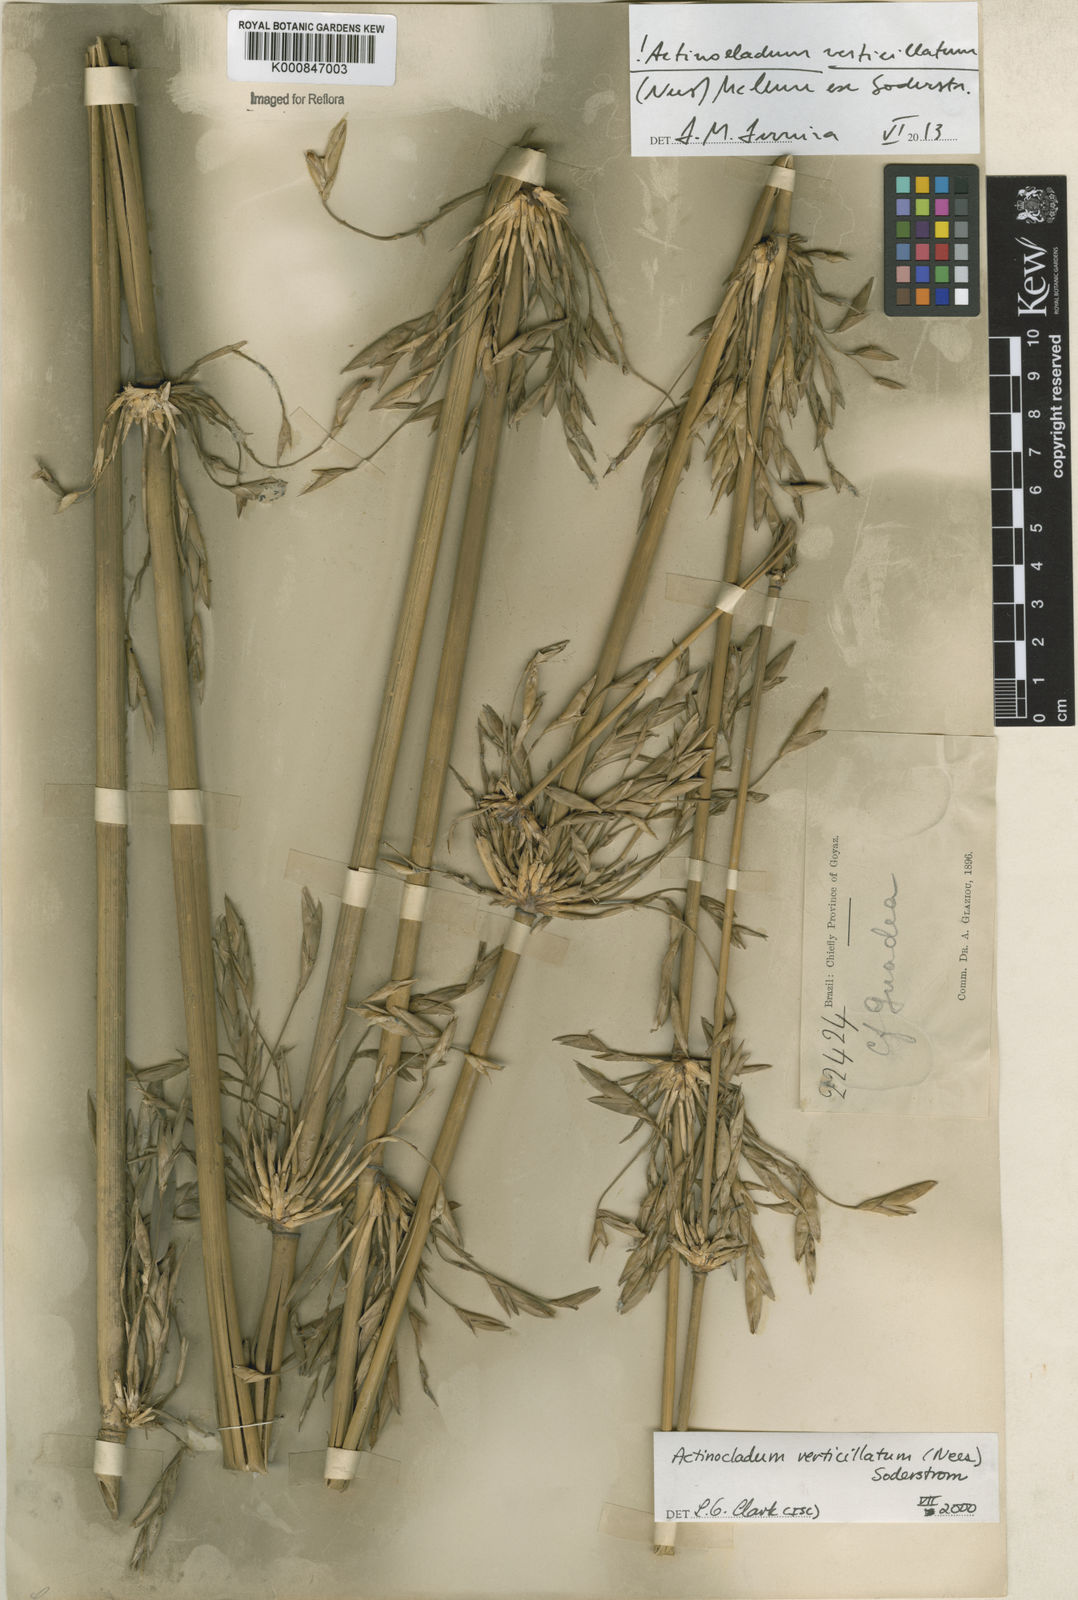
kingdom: Plantae
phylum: Tracheophyta
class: Liliopsida
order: Poales
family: Poaceae
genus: Actinocladum
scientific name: Actinocladum verticillatum
